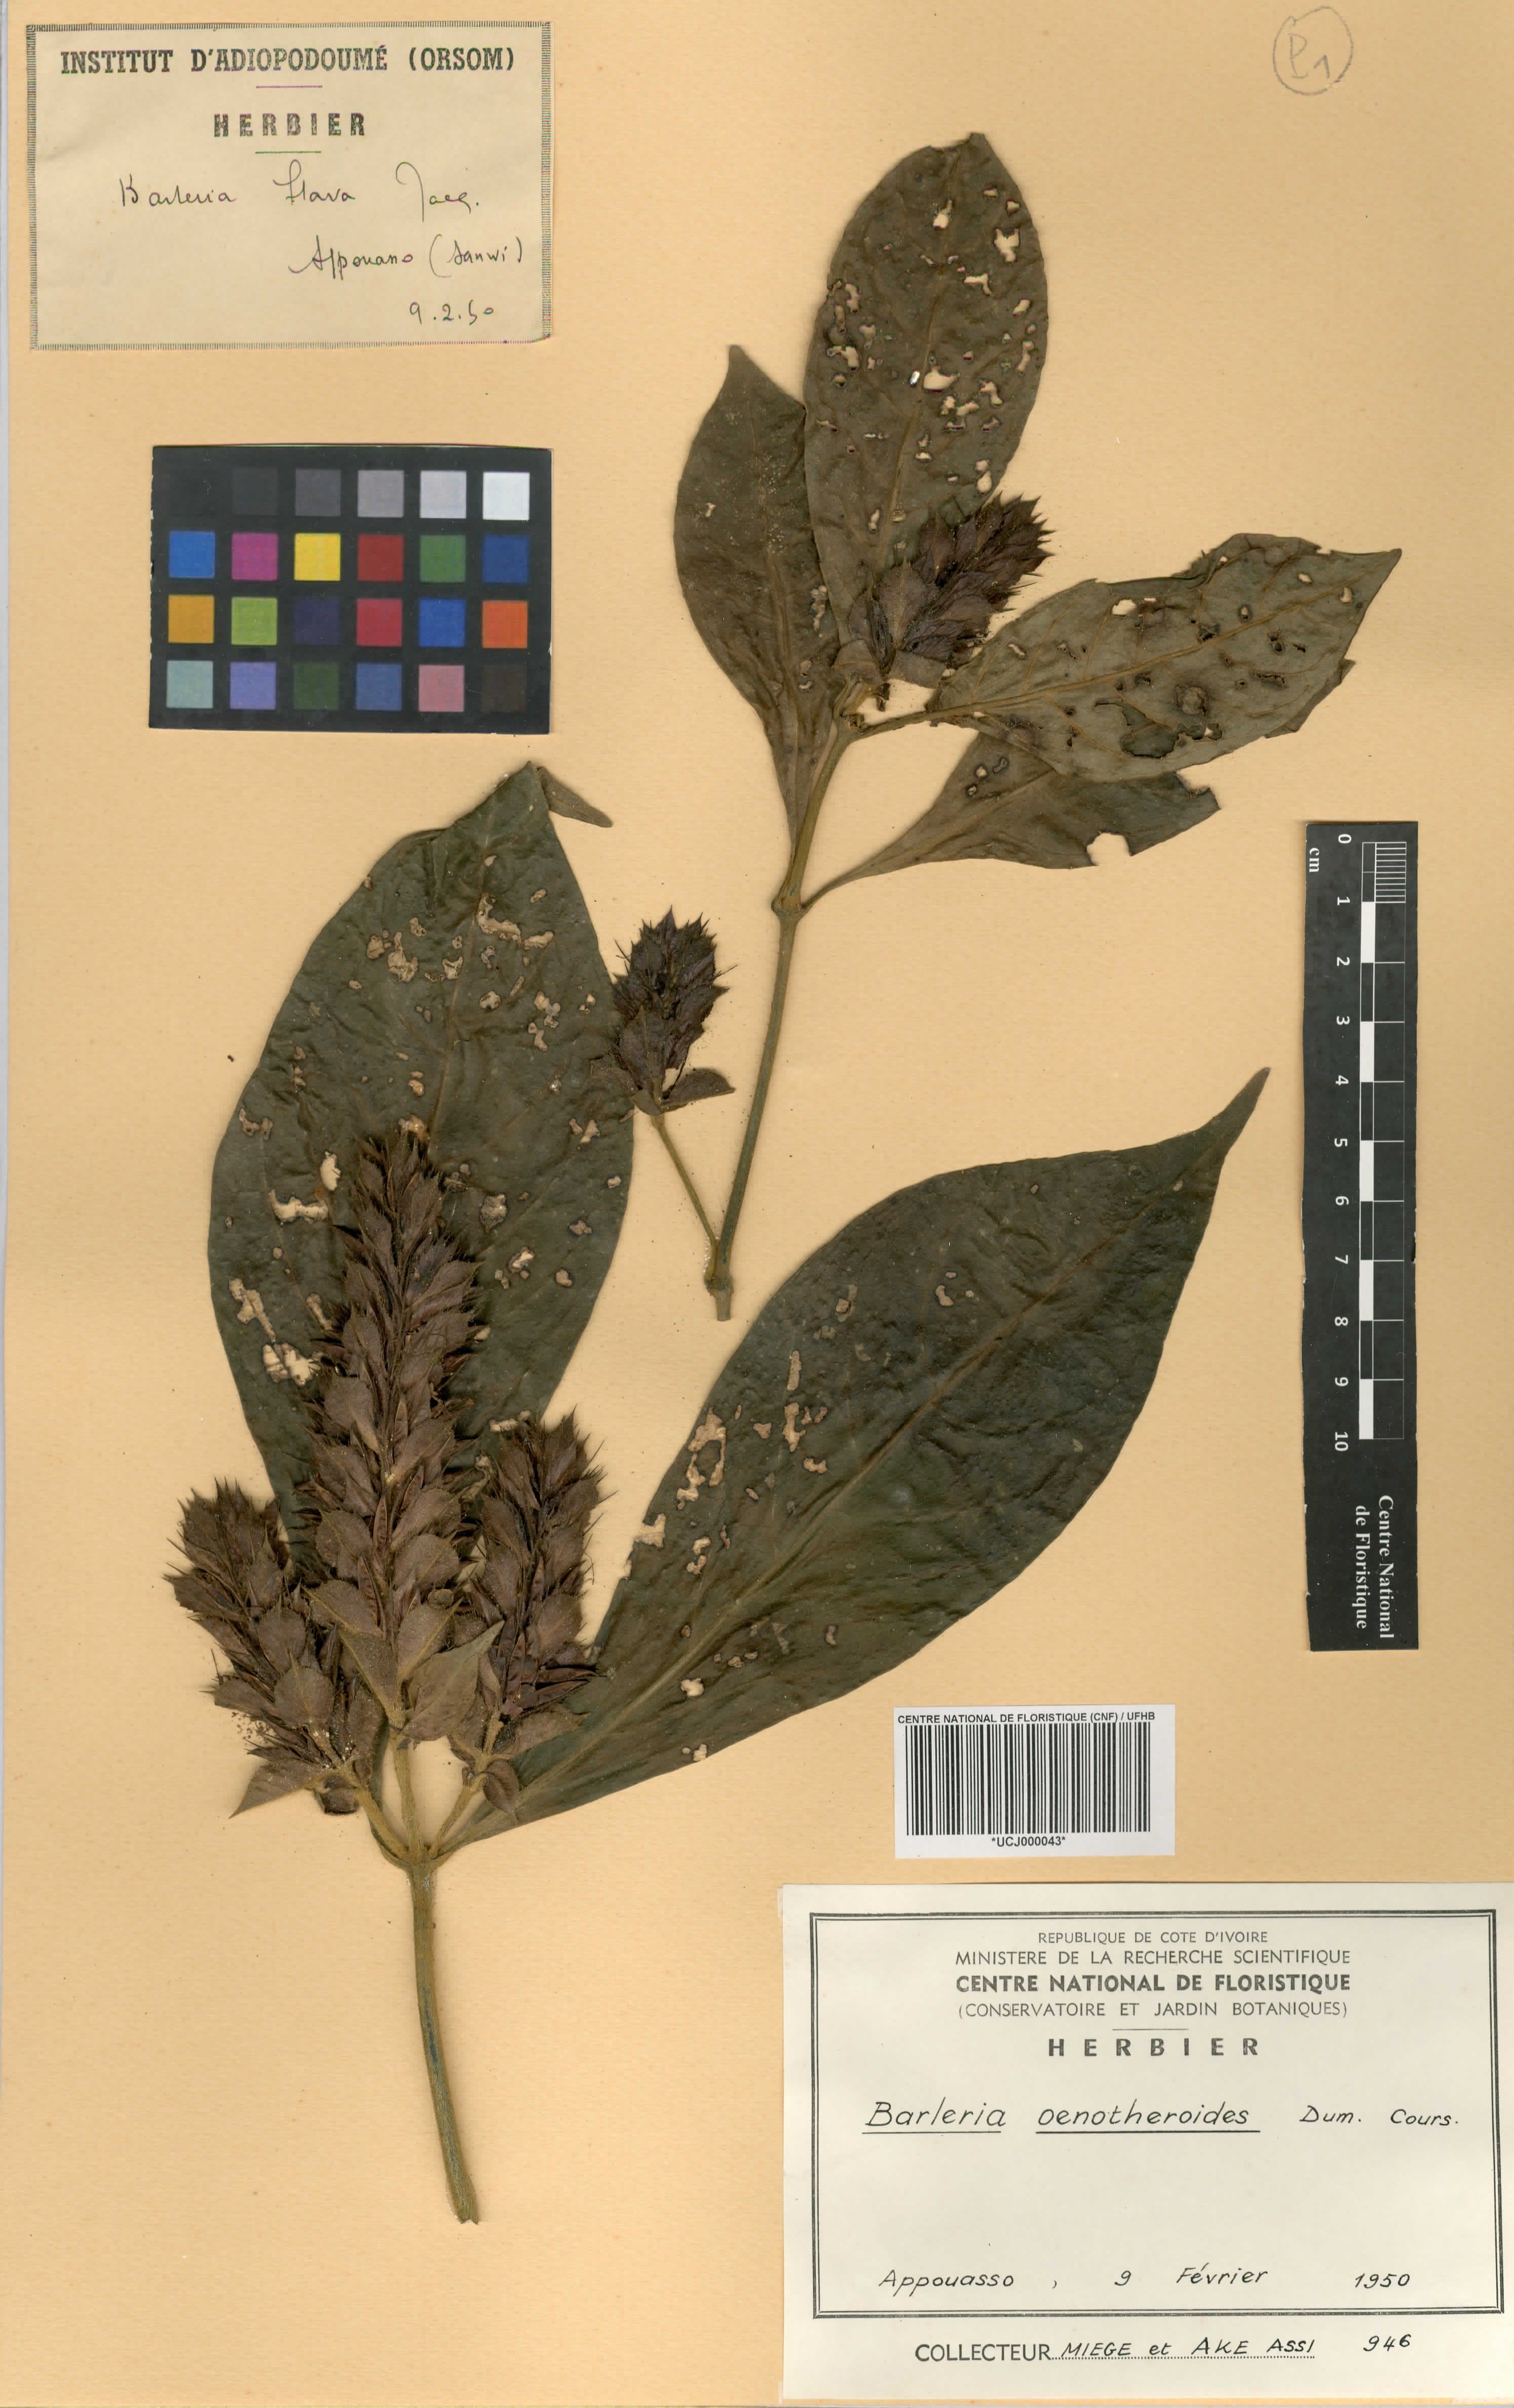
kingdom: Plantae
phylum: Tracheophyta
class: Magnoliopsida
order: Lamiales
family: Acanthaceae
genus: Barleria
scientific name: Barleria oenotheroides
